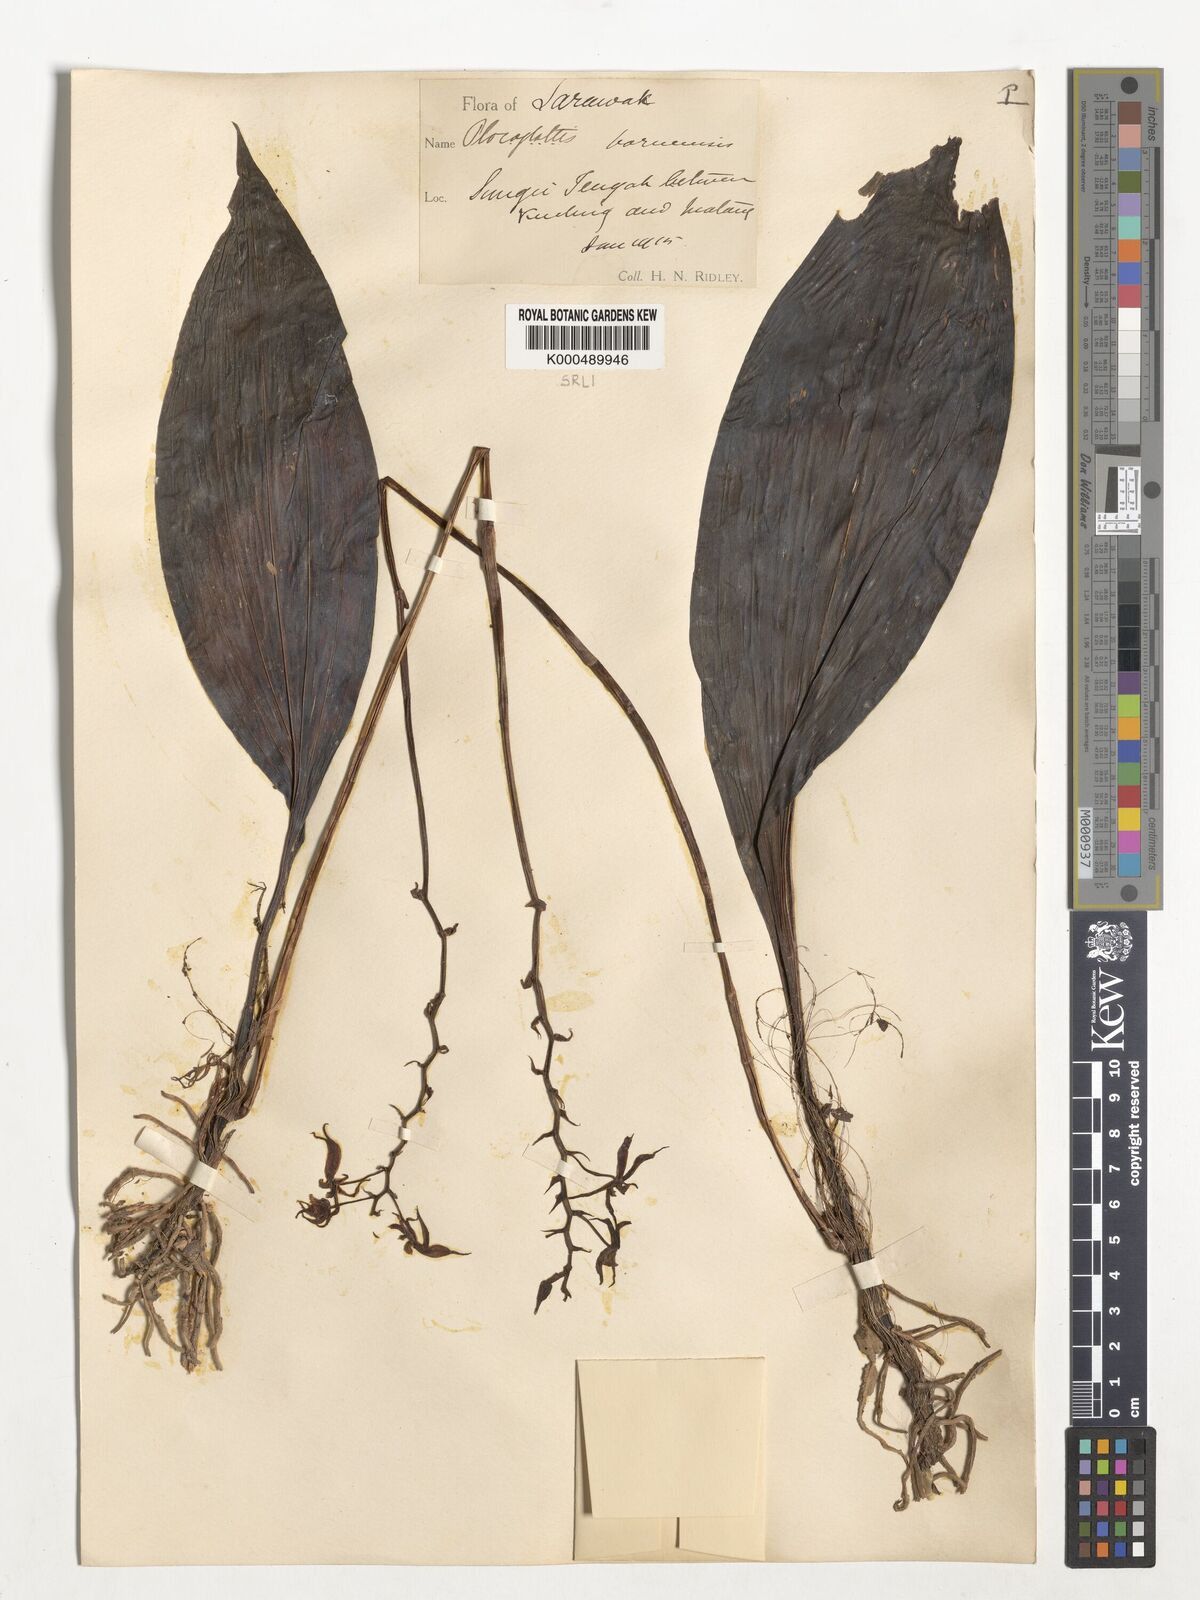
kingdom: Plantae
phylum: Tracheophyta
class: Liliopsida
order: Asparagales
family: Orchidaceae
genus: Plocoglottis
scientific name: Plocoglottis borneensis
